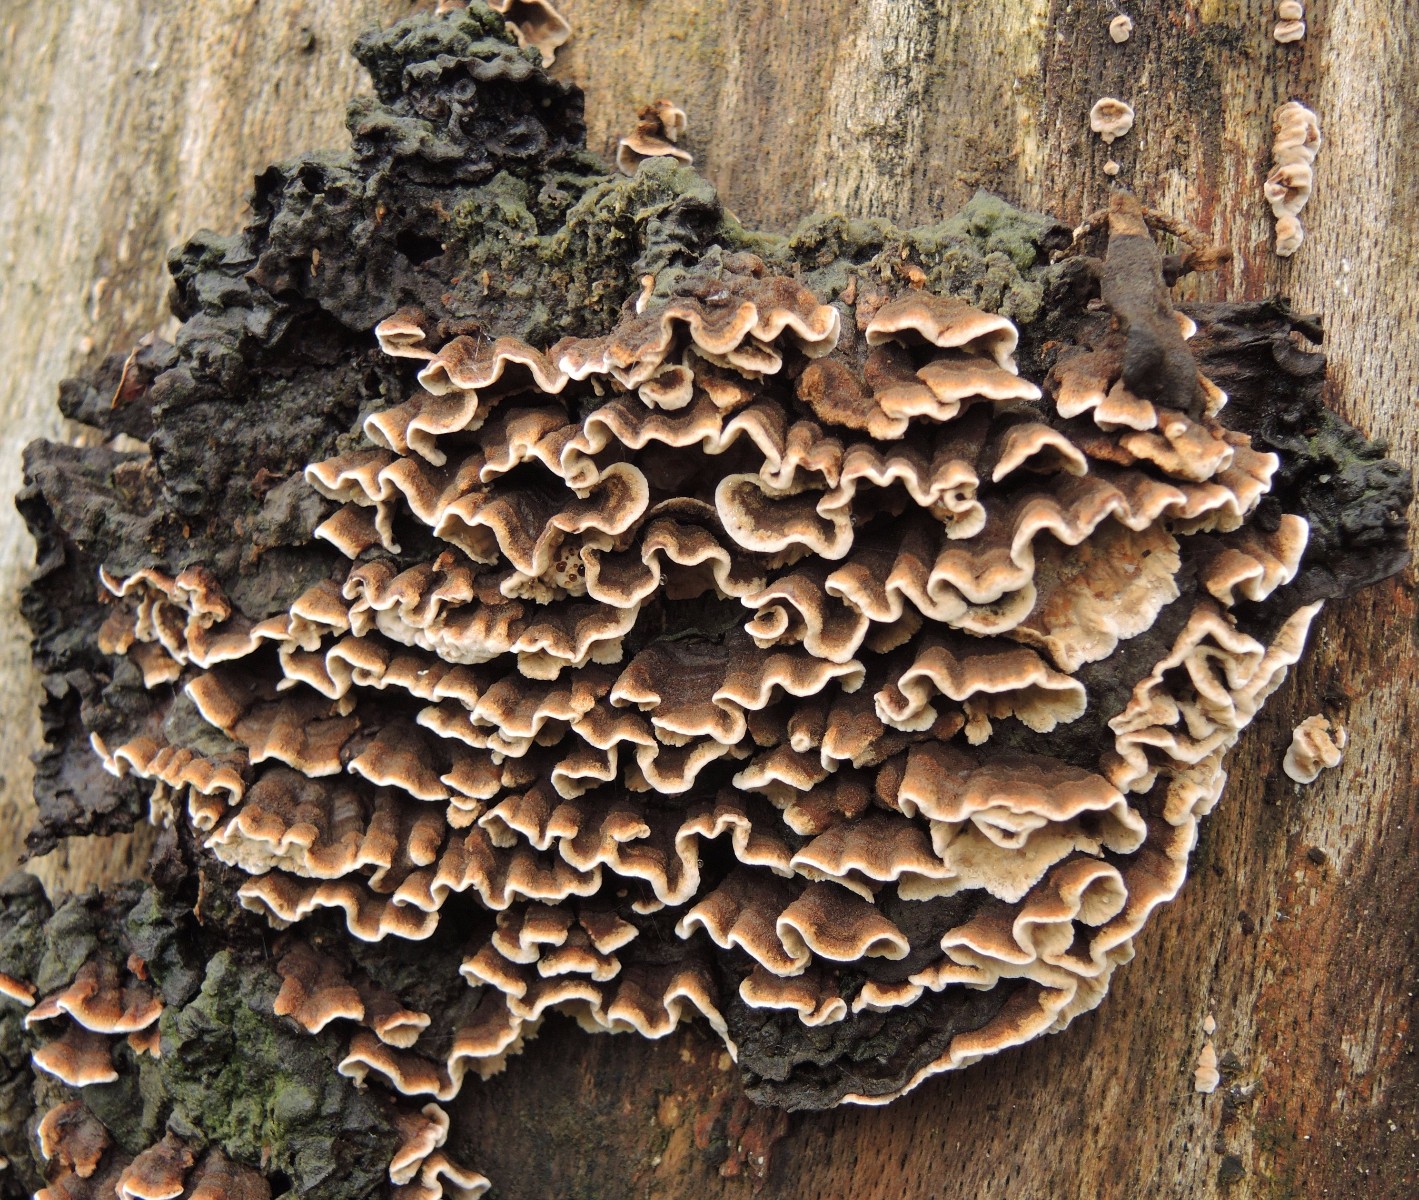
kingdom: Fungi
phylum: Basidiomycota
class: Agaricomycetes
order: Russulales
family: Hericiaceae
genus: Laxitextum
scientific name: Laxitextum bicolor
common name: tvefarvet filtskind
